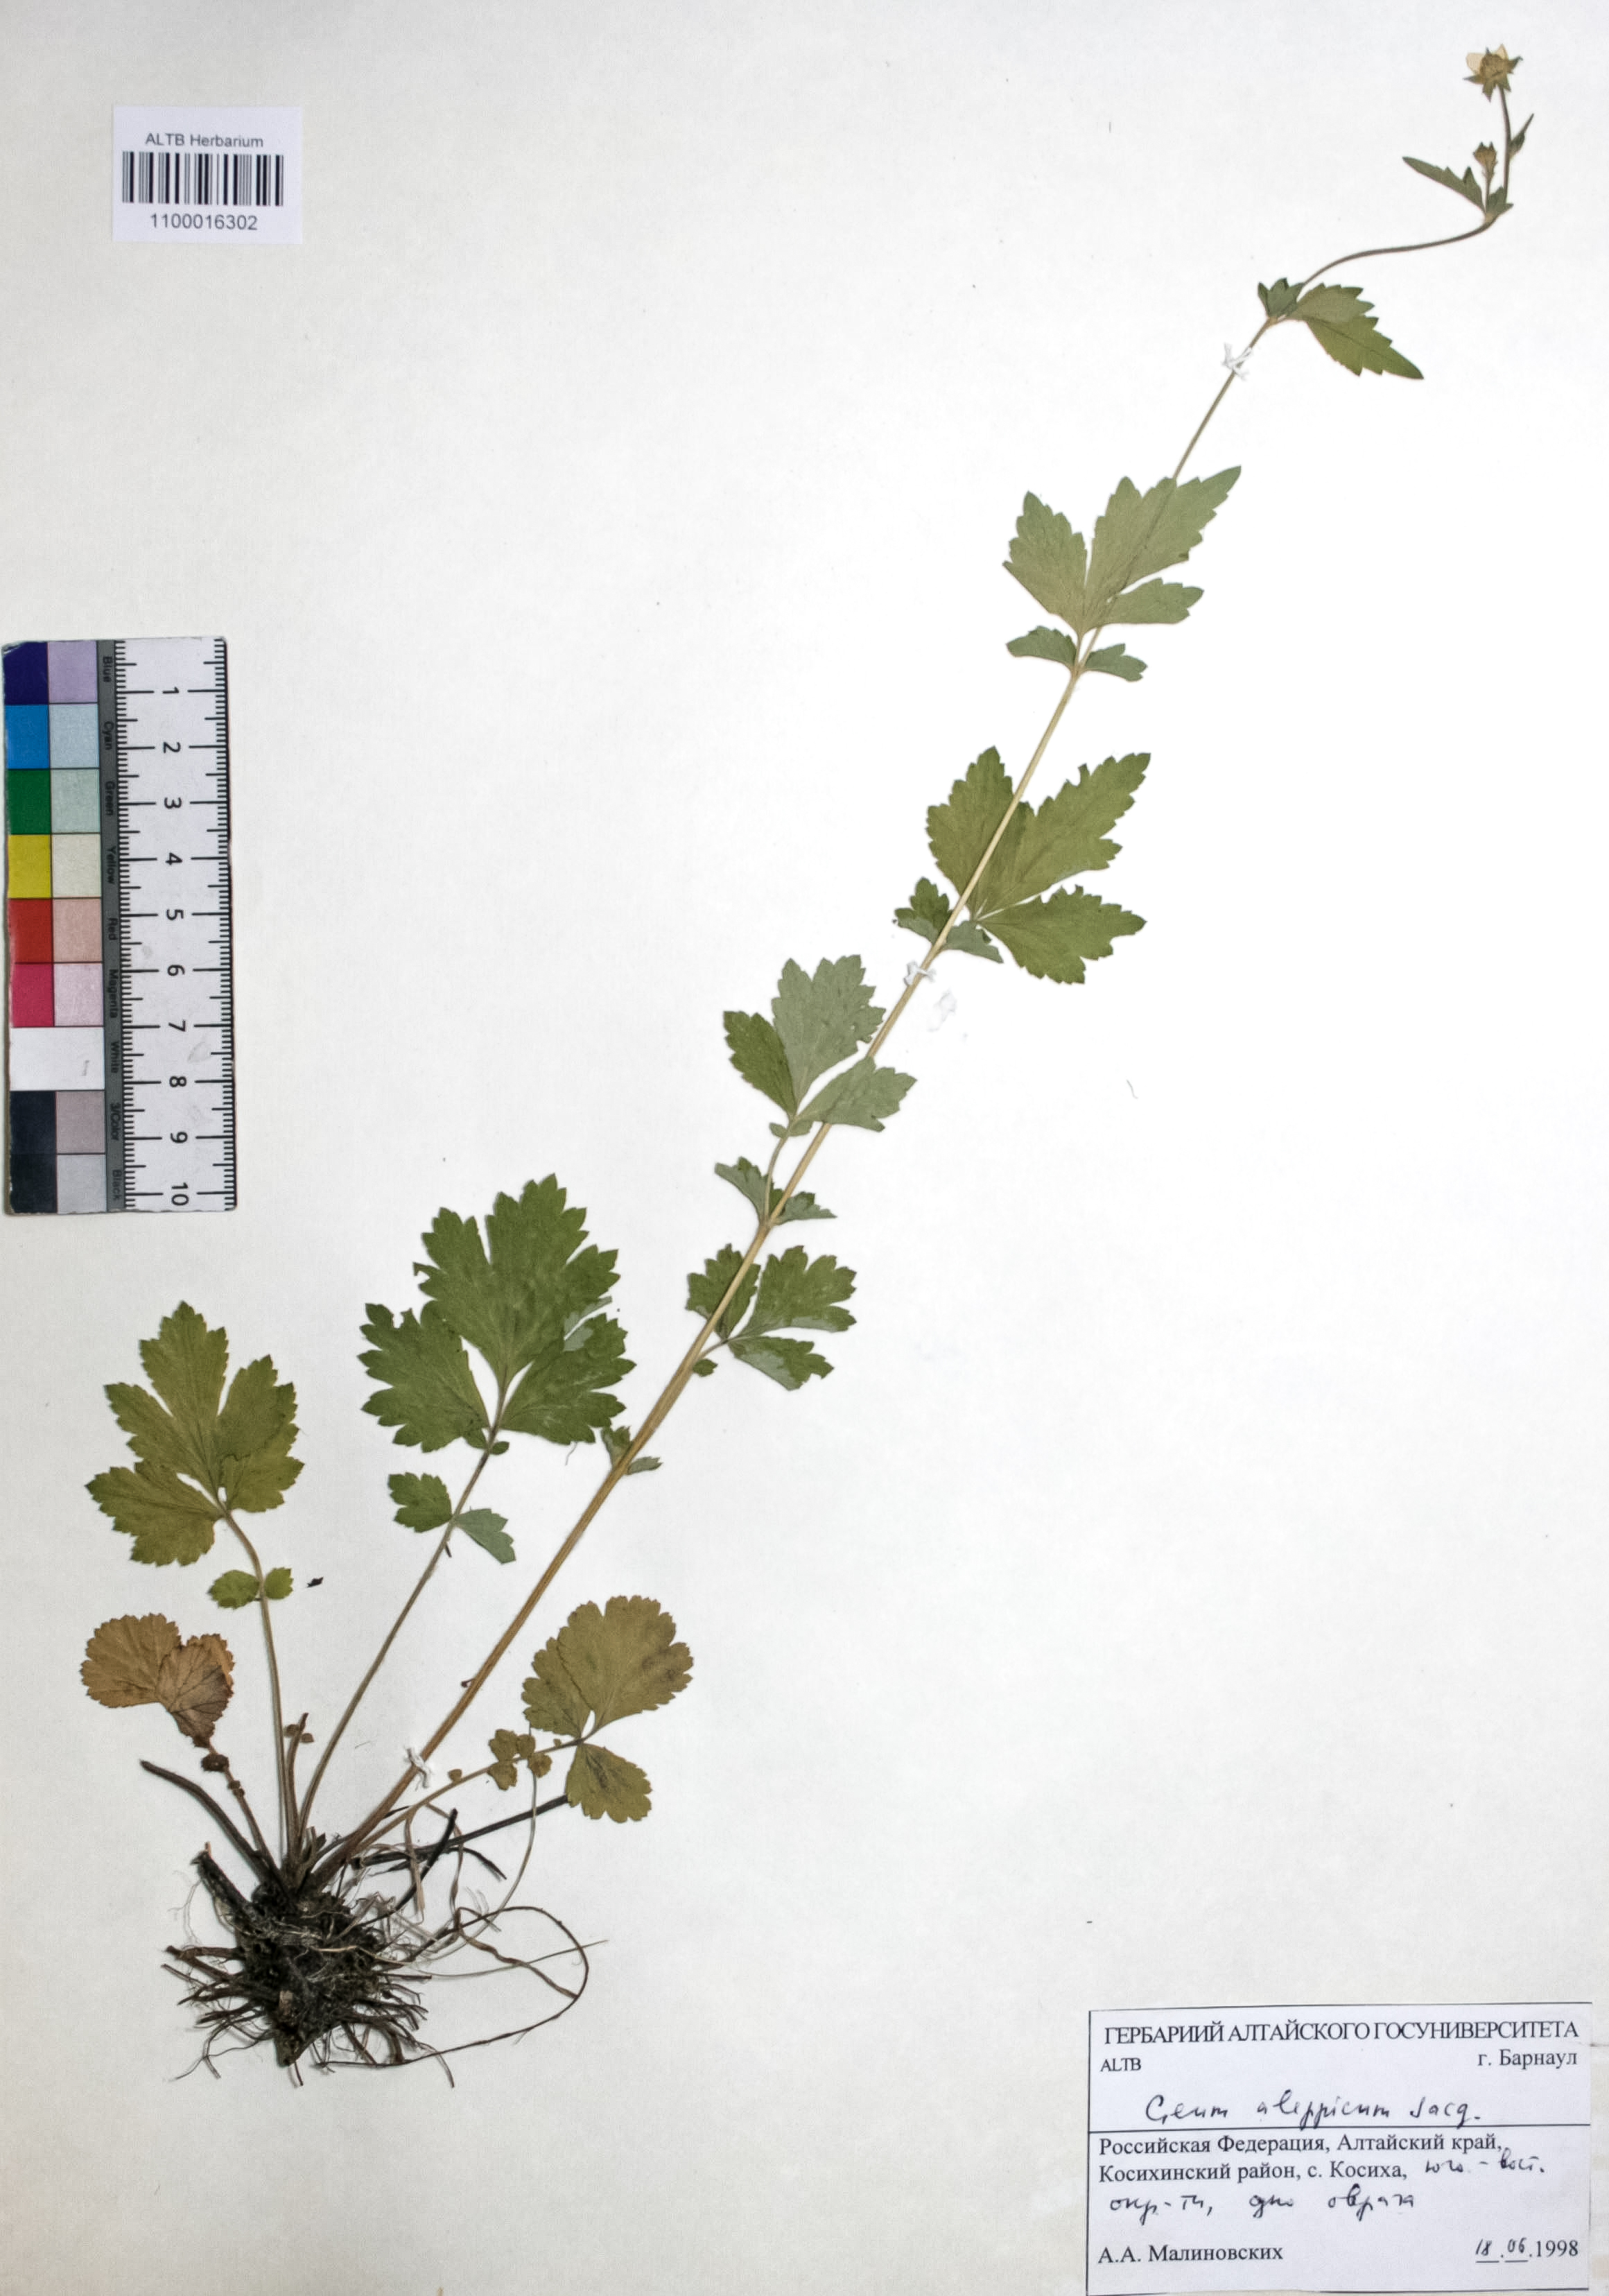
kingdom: Plantae
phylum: Tracheophyta
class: Magnoliopsida
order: Rosales
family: Rosaceae
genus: Geum
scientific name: Geum aleppicum
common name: Yellow avens
